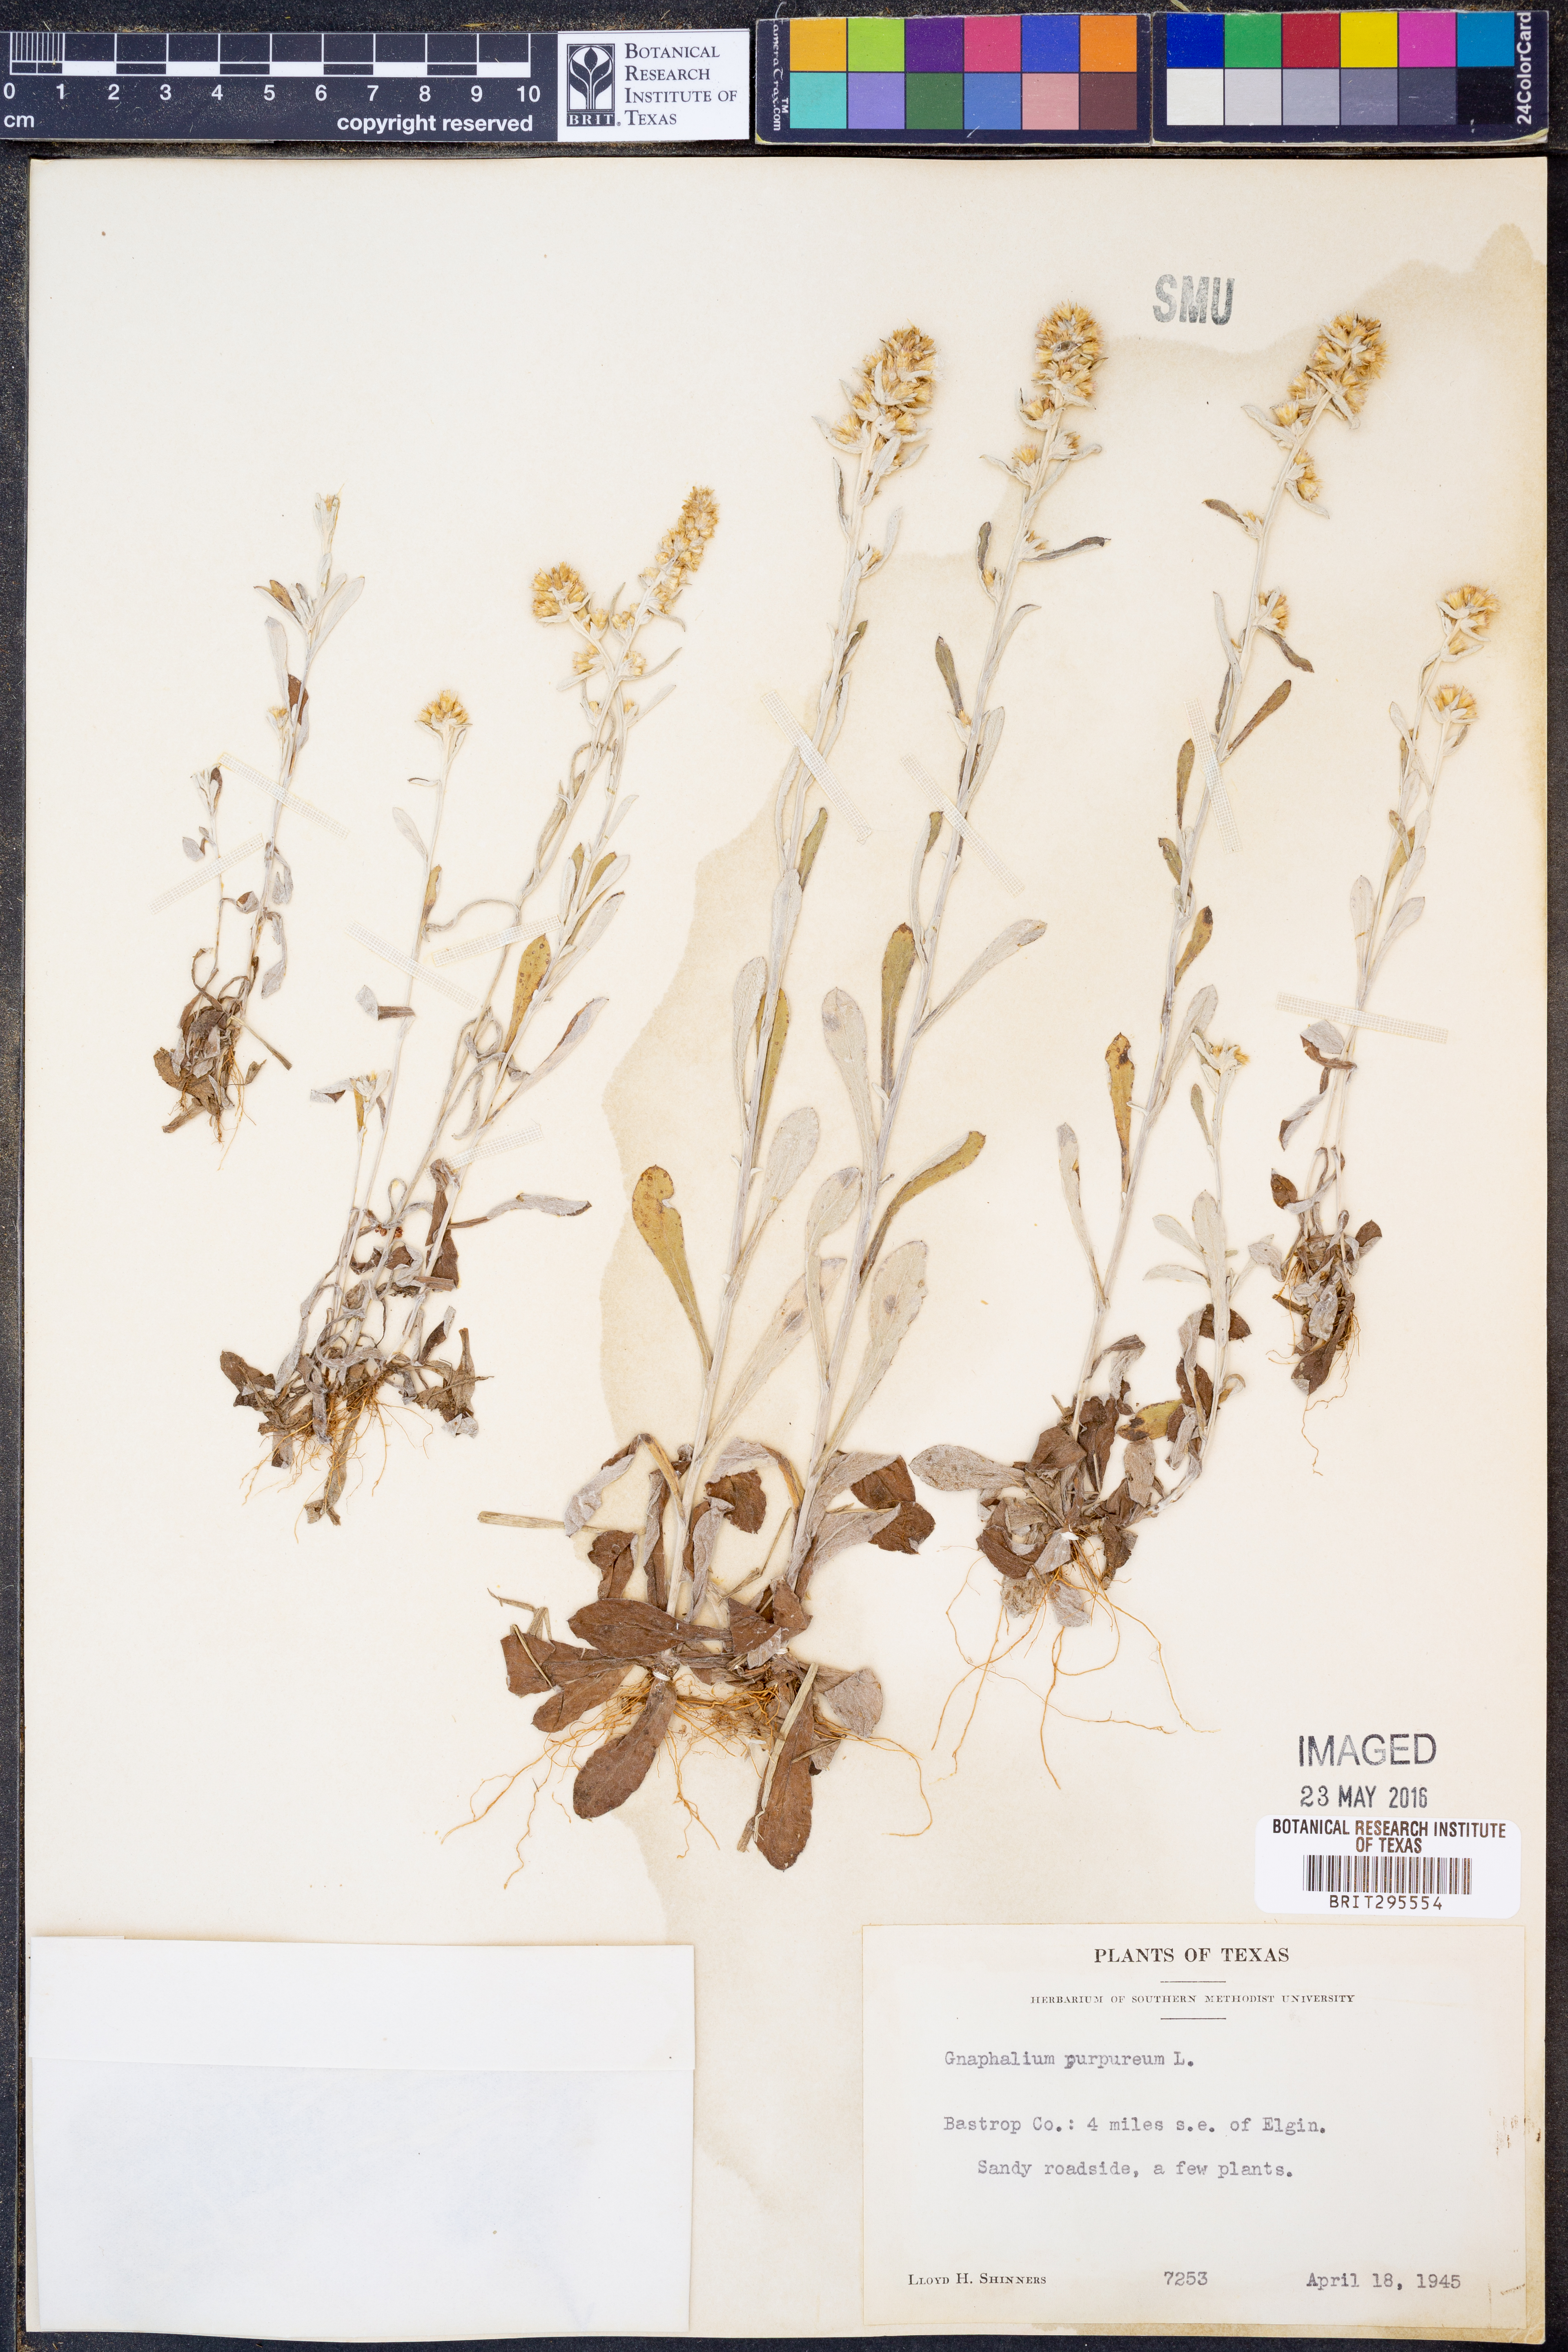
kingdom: Plantae
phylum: Tracheophyta
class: Magnoliopsida
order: Asterales
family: Asteraceae
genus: Gamochaeta
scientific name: Gamochaeta purpurea
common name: Purple cudweed
